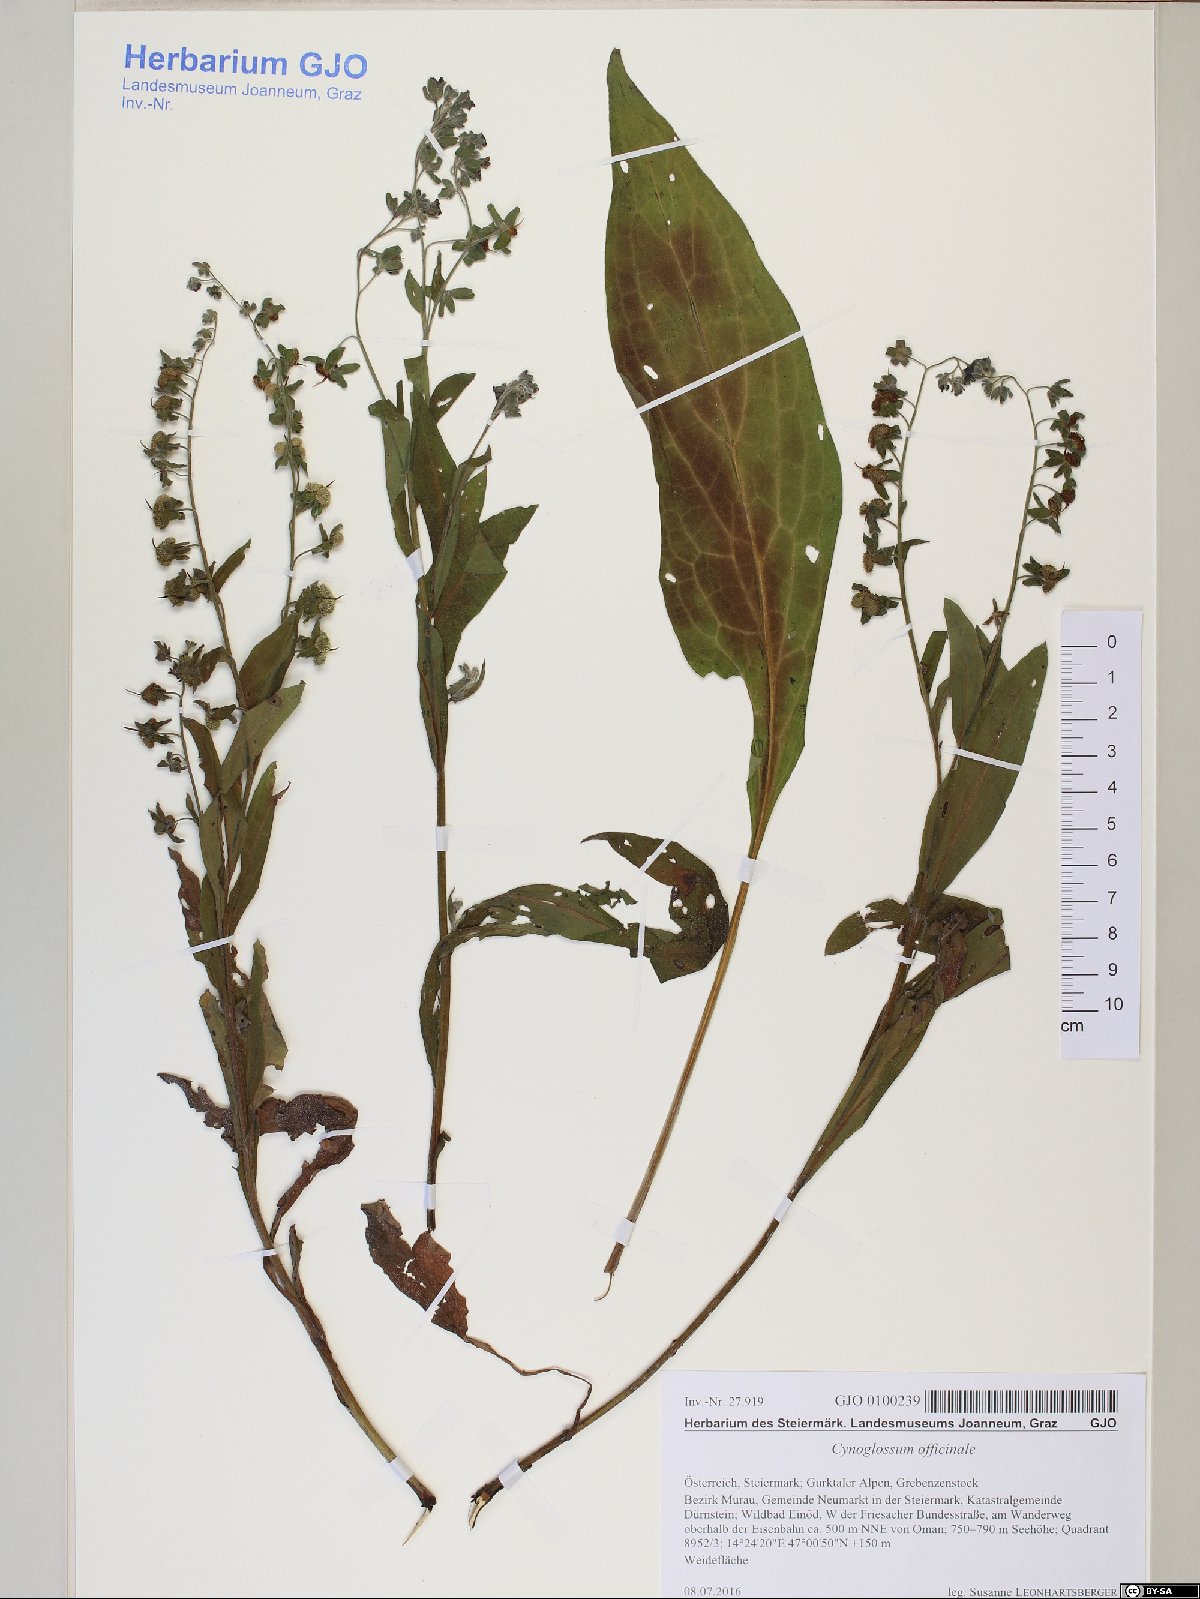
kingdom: Plantae
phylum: Tracheophyta
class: Magnoliopsida
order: Boraginales
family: Boraginaceae
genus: Cynoglossum
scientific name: Cynoglossum officinale
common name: Hound's-tongue
